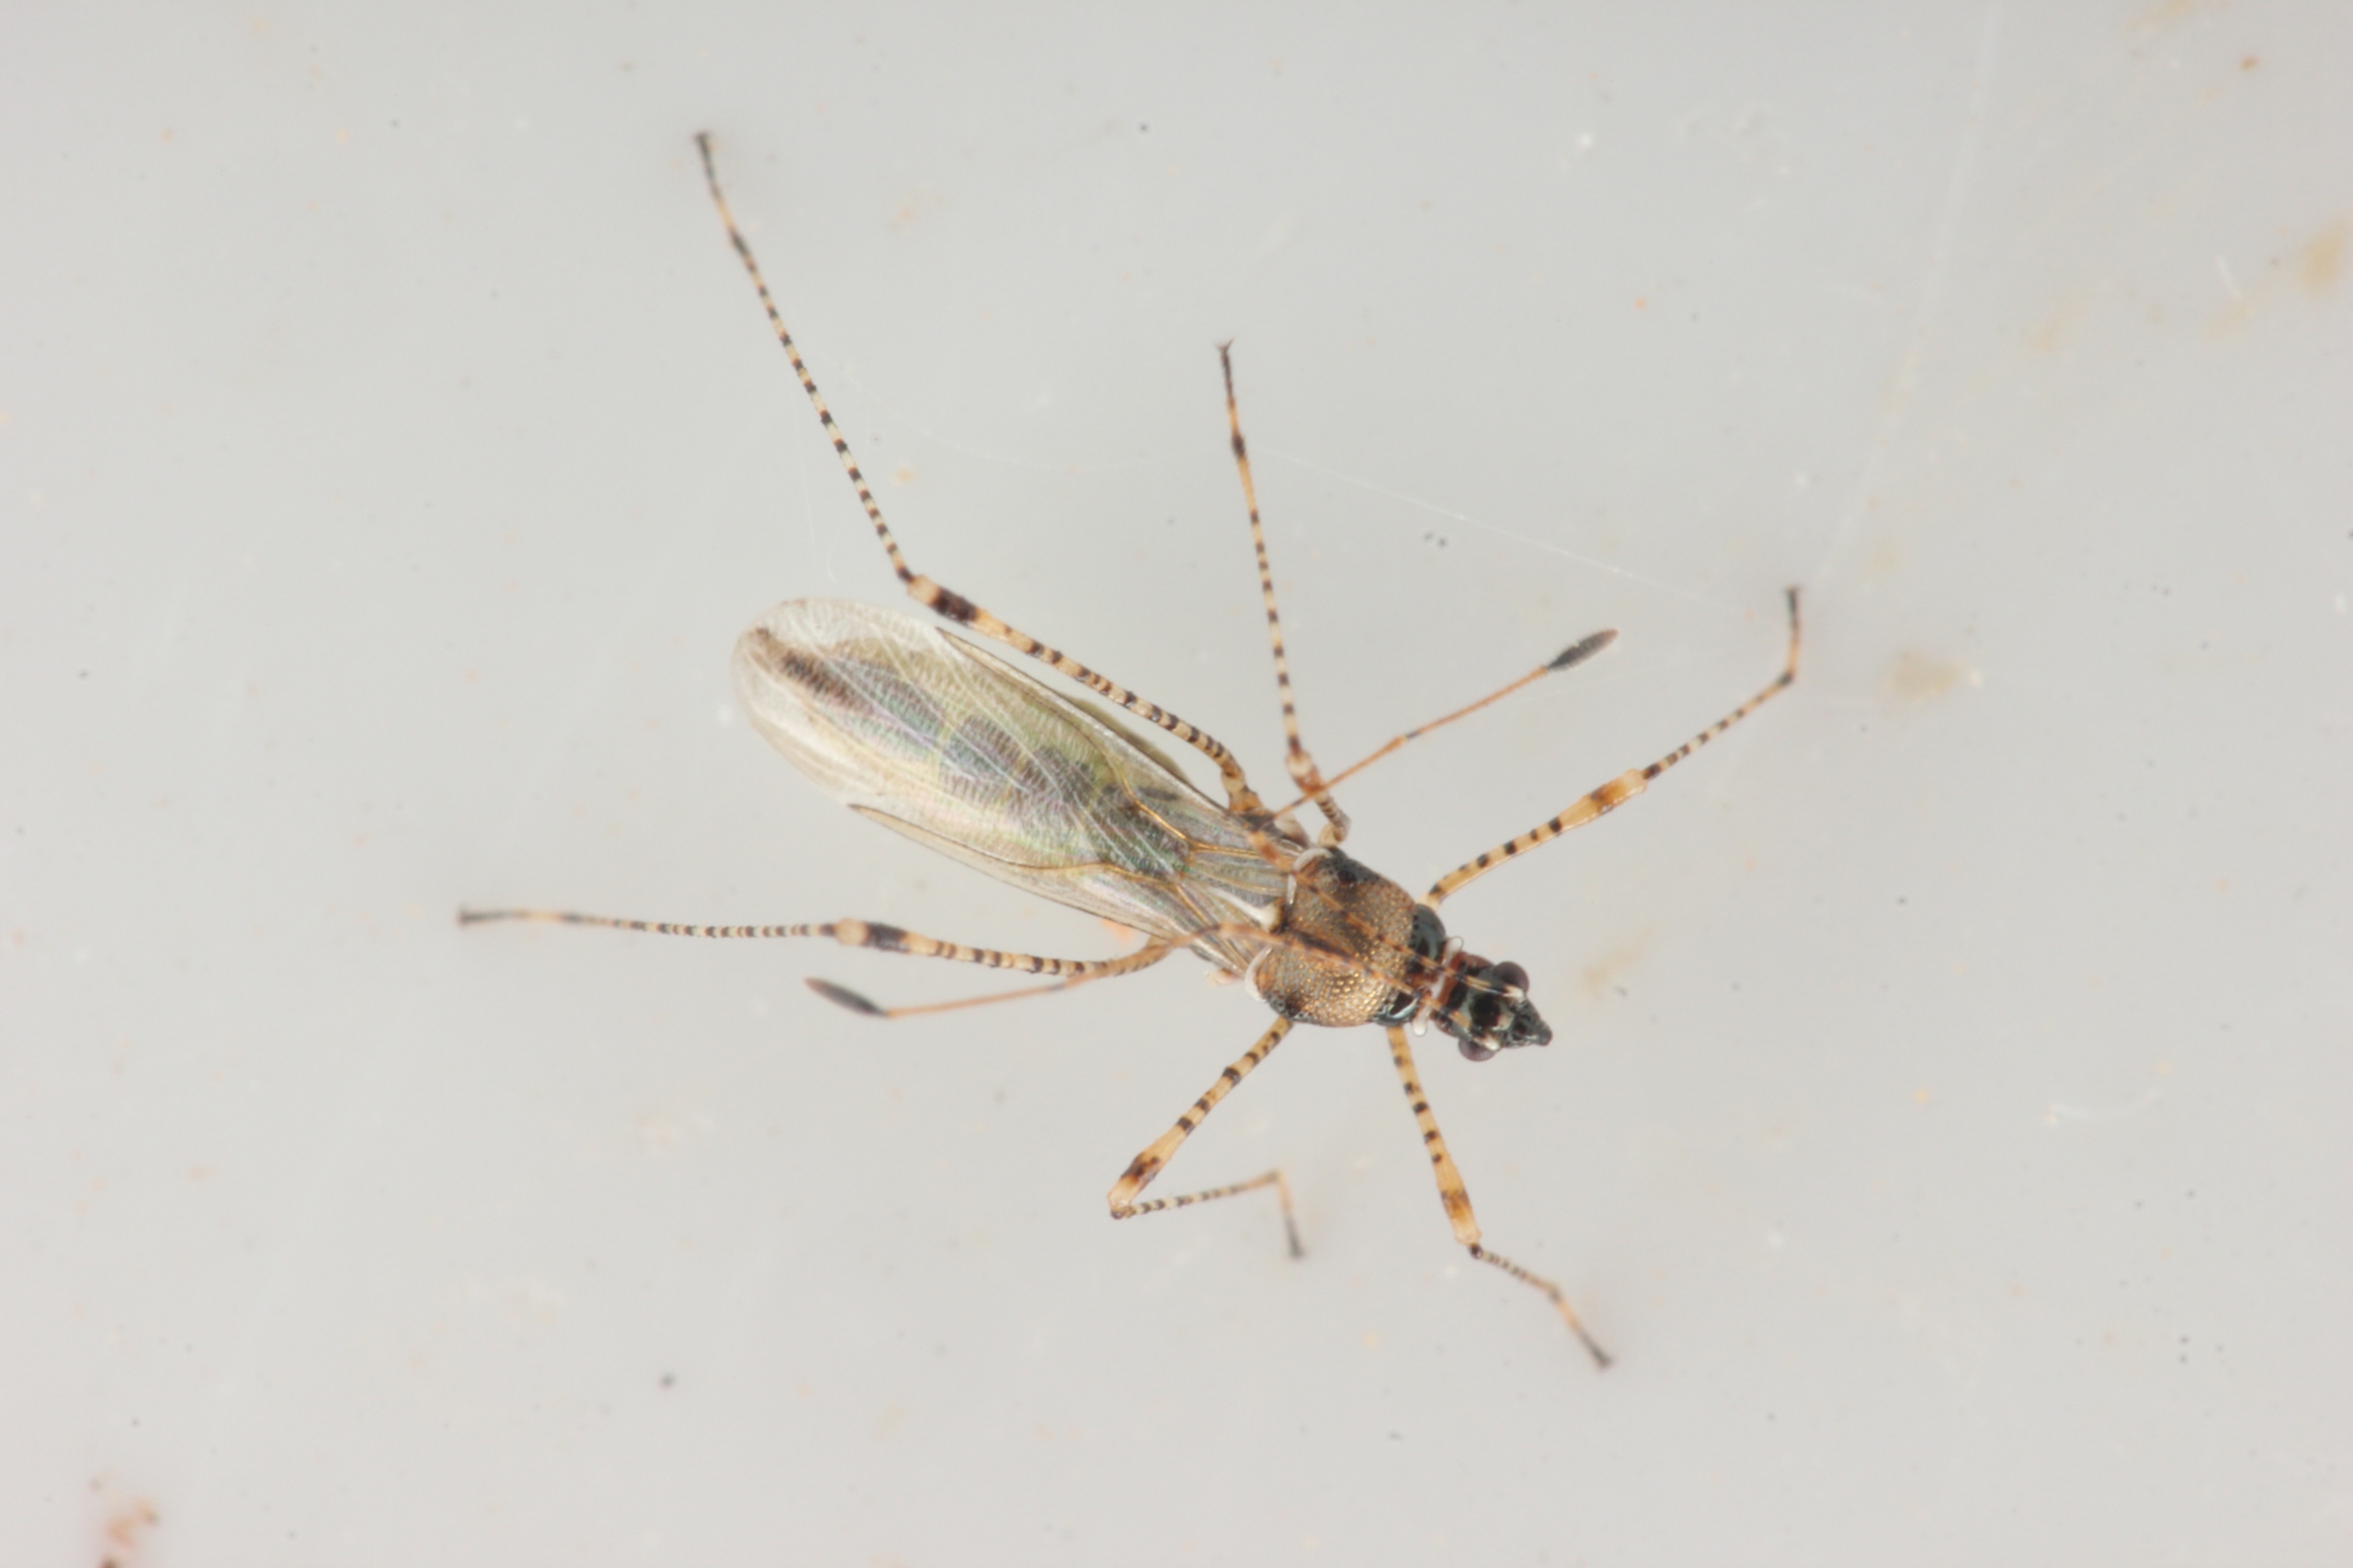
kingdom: Animalia
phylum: Arthropoda
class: Insecta
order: Hemiptera
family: Berytidae
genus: Gampsocoris
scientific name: Gampsocoris punctipes
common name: Krageklotæge
